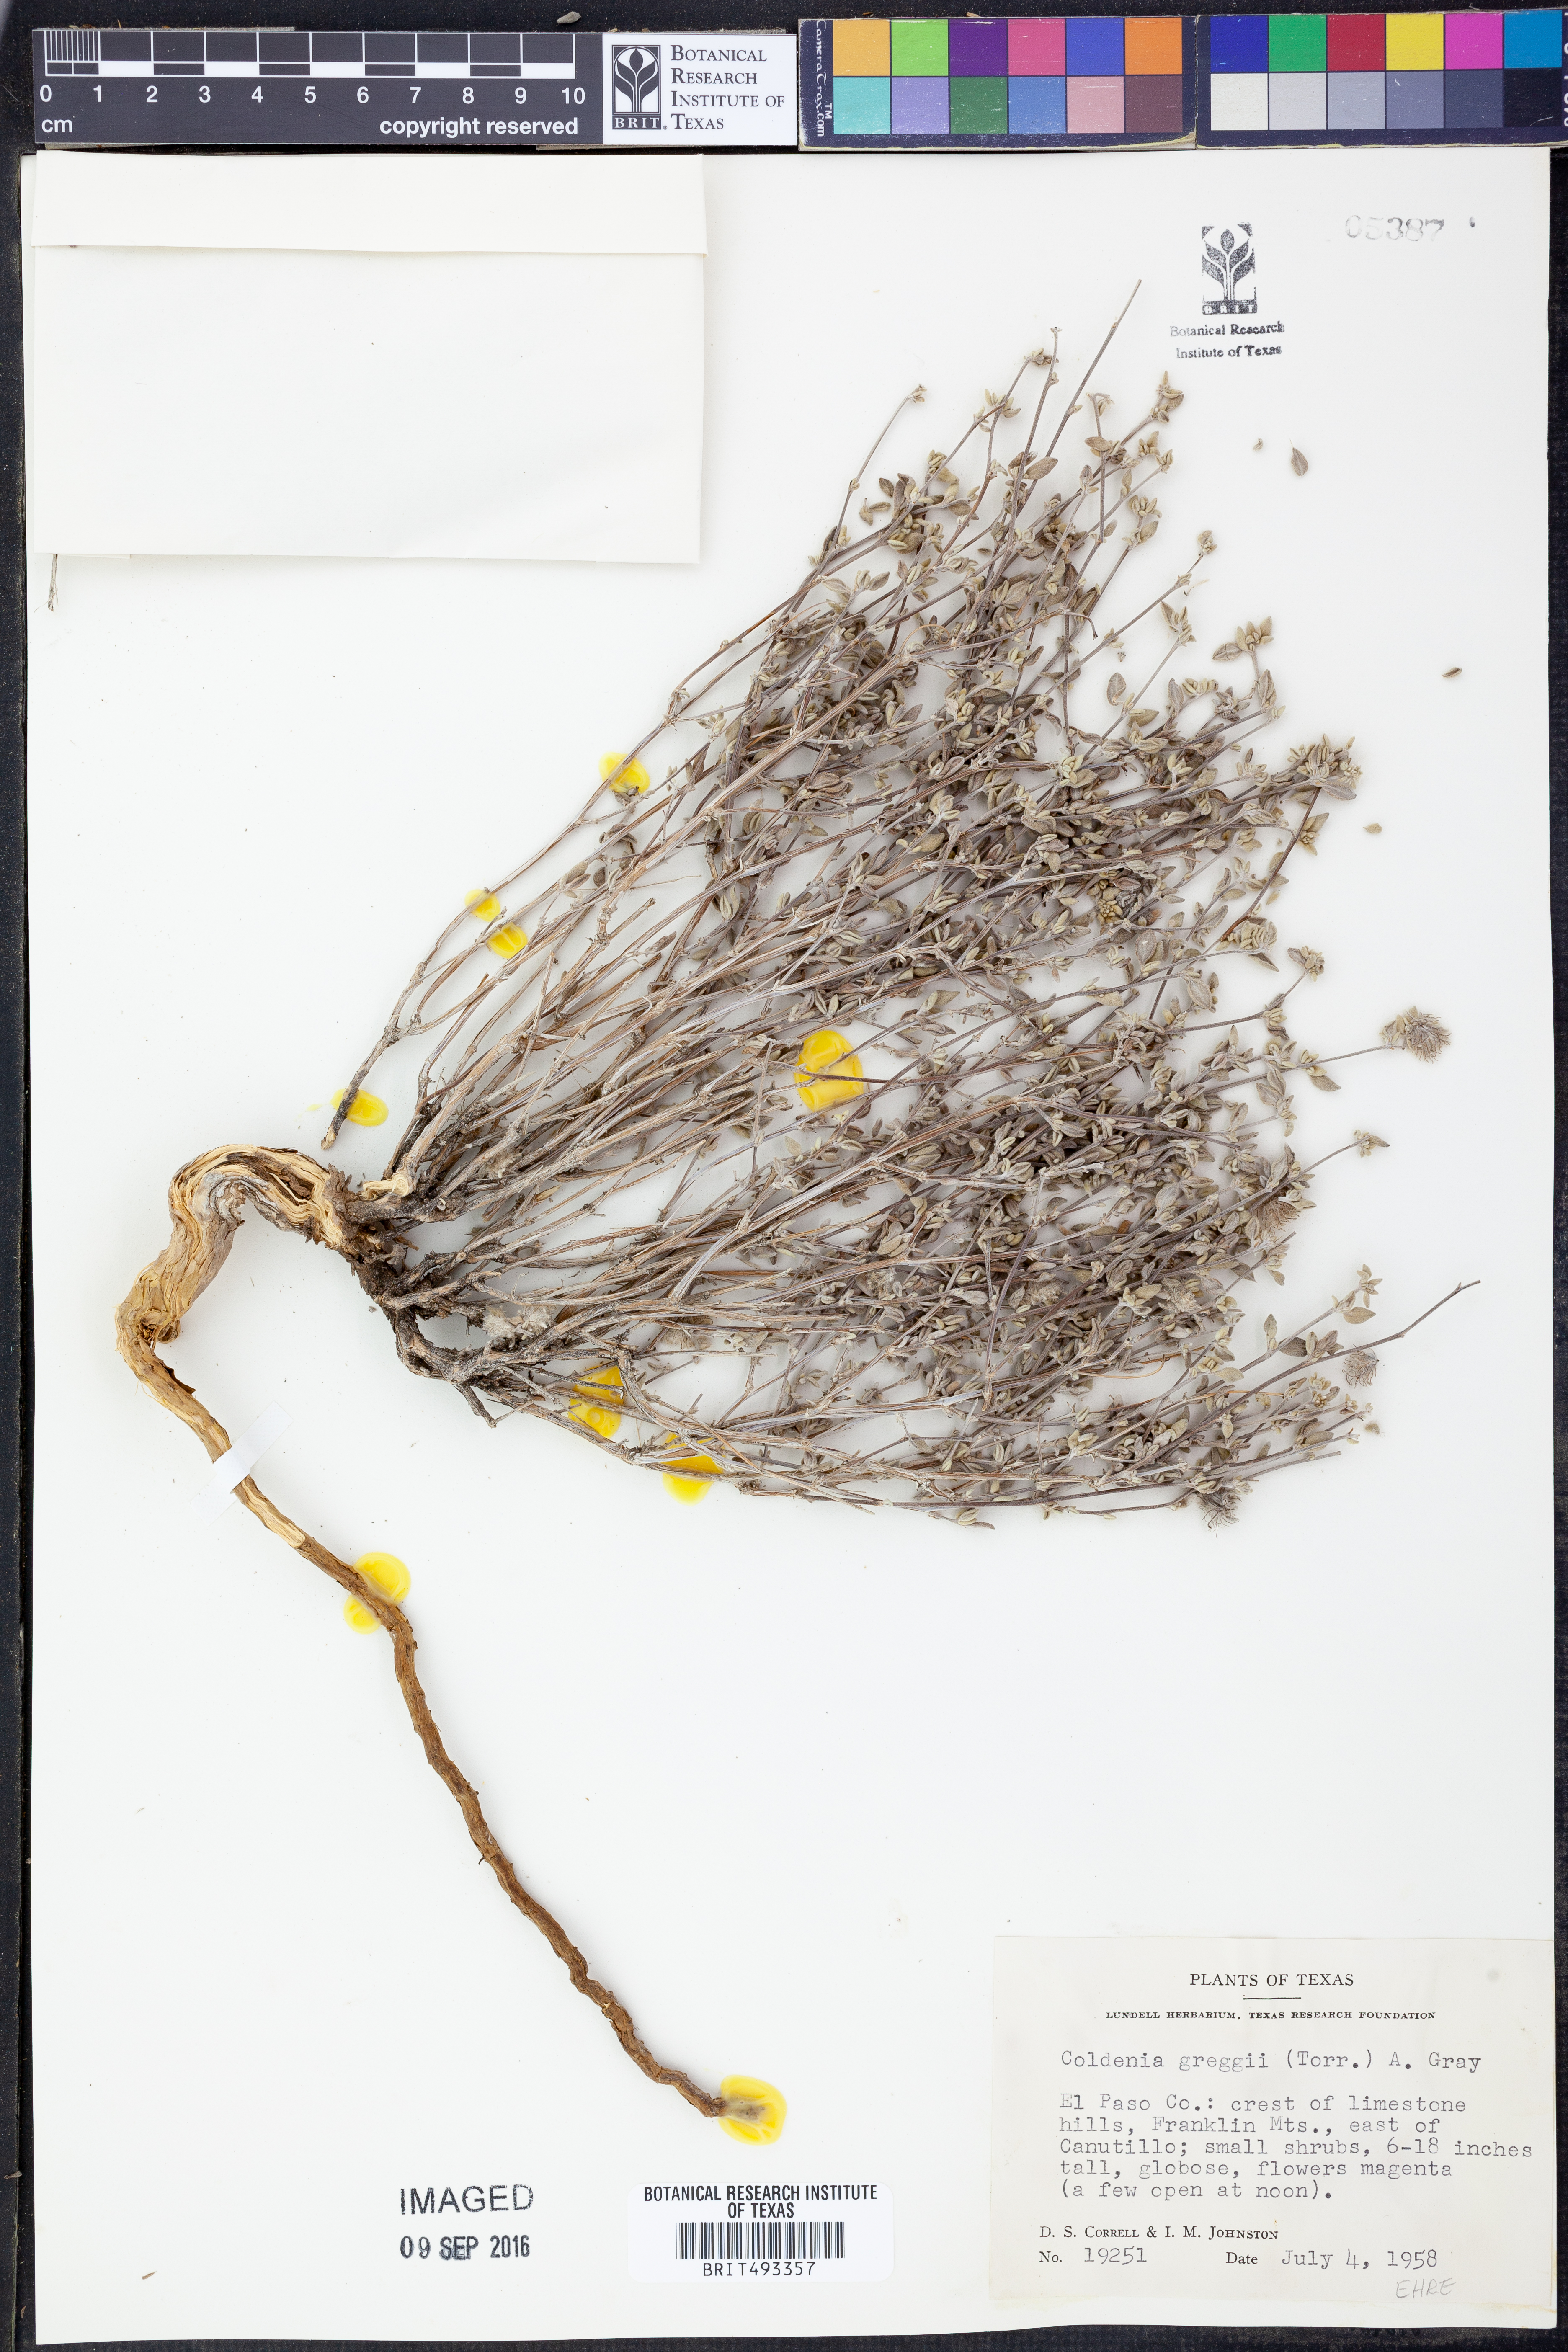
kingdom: Plantae
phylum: Tracheophyta
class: Magnoliopsida
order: Boraginales
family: Ehretiaceae
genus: Tiquilia
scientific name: Tiquilia greggii
